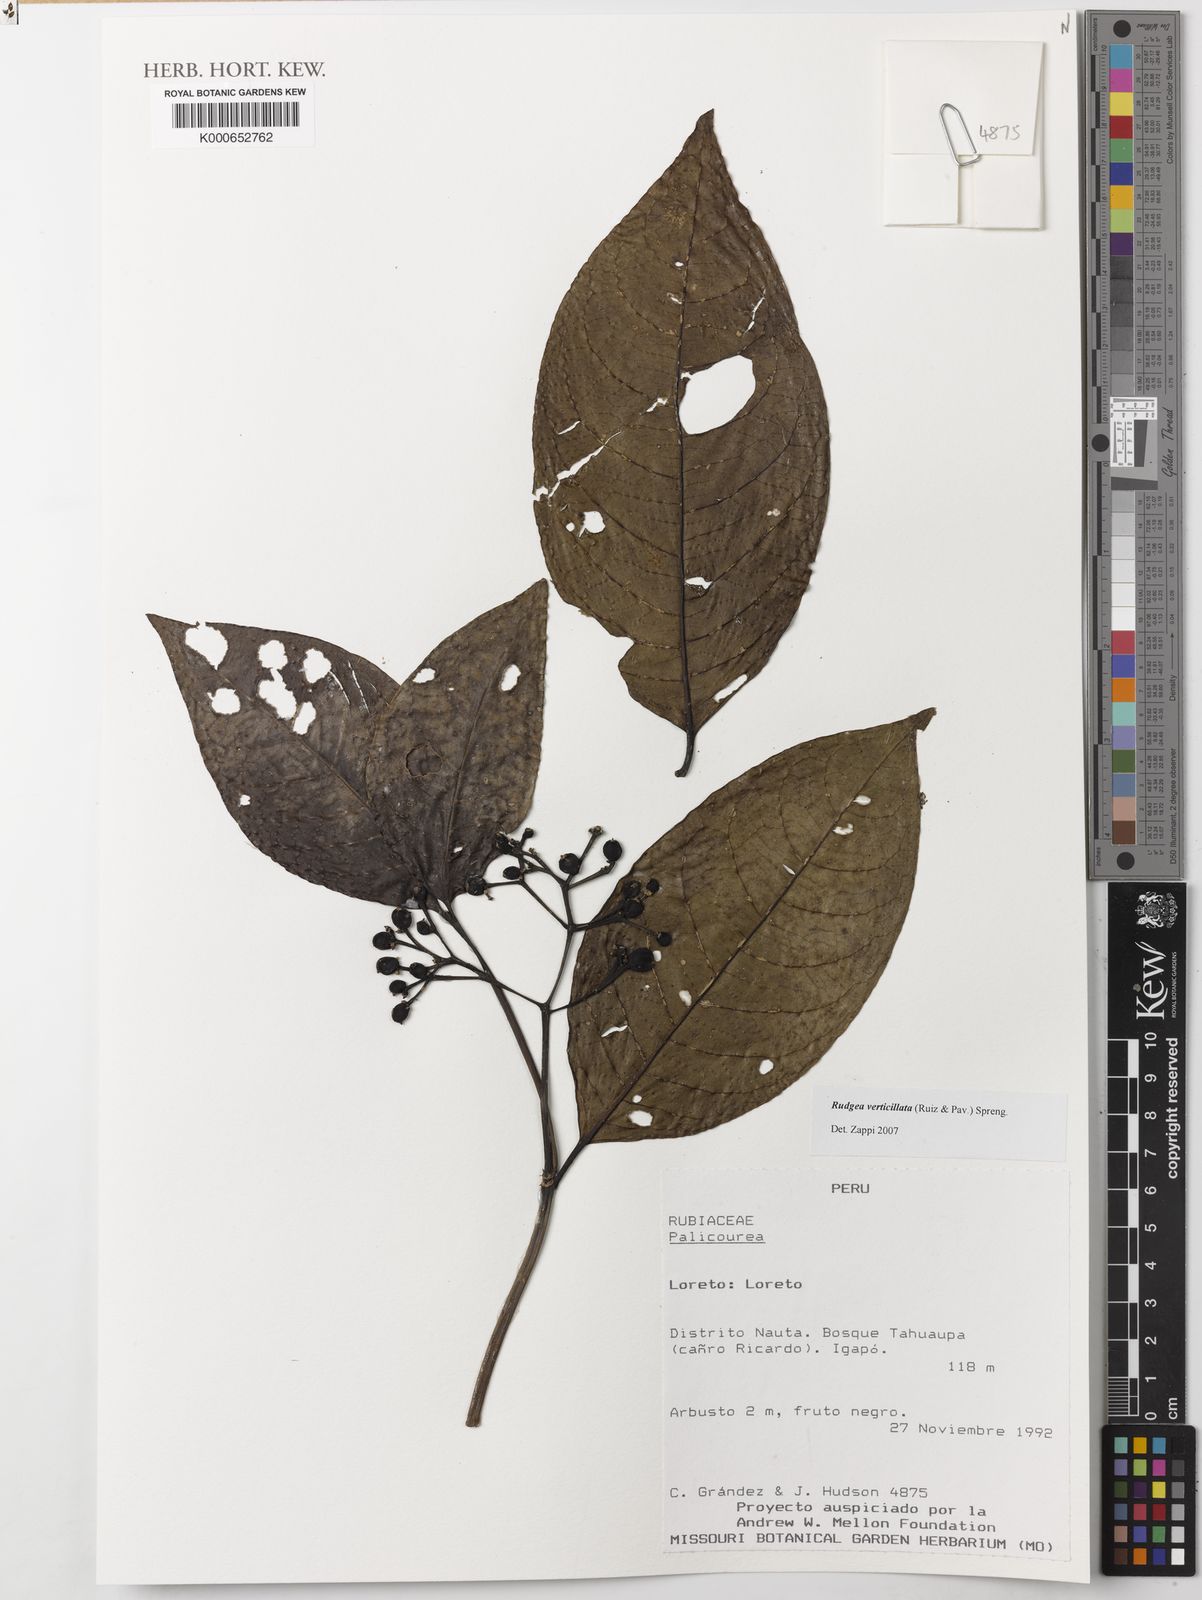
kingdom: Plantae
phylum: Tracheophyta
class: Magnoliopsida
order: Gentianales
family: Rubiaceae
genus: Rudgea
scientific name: Rudgea verticillata
